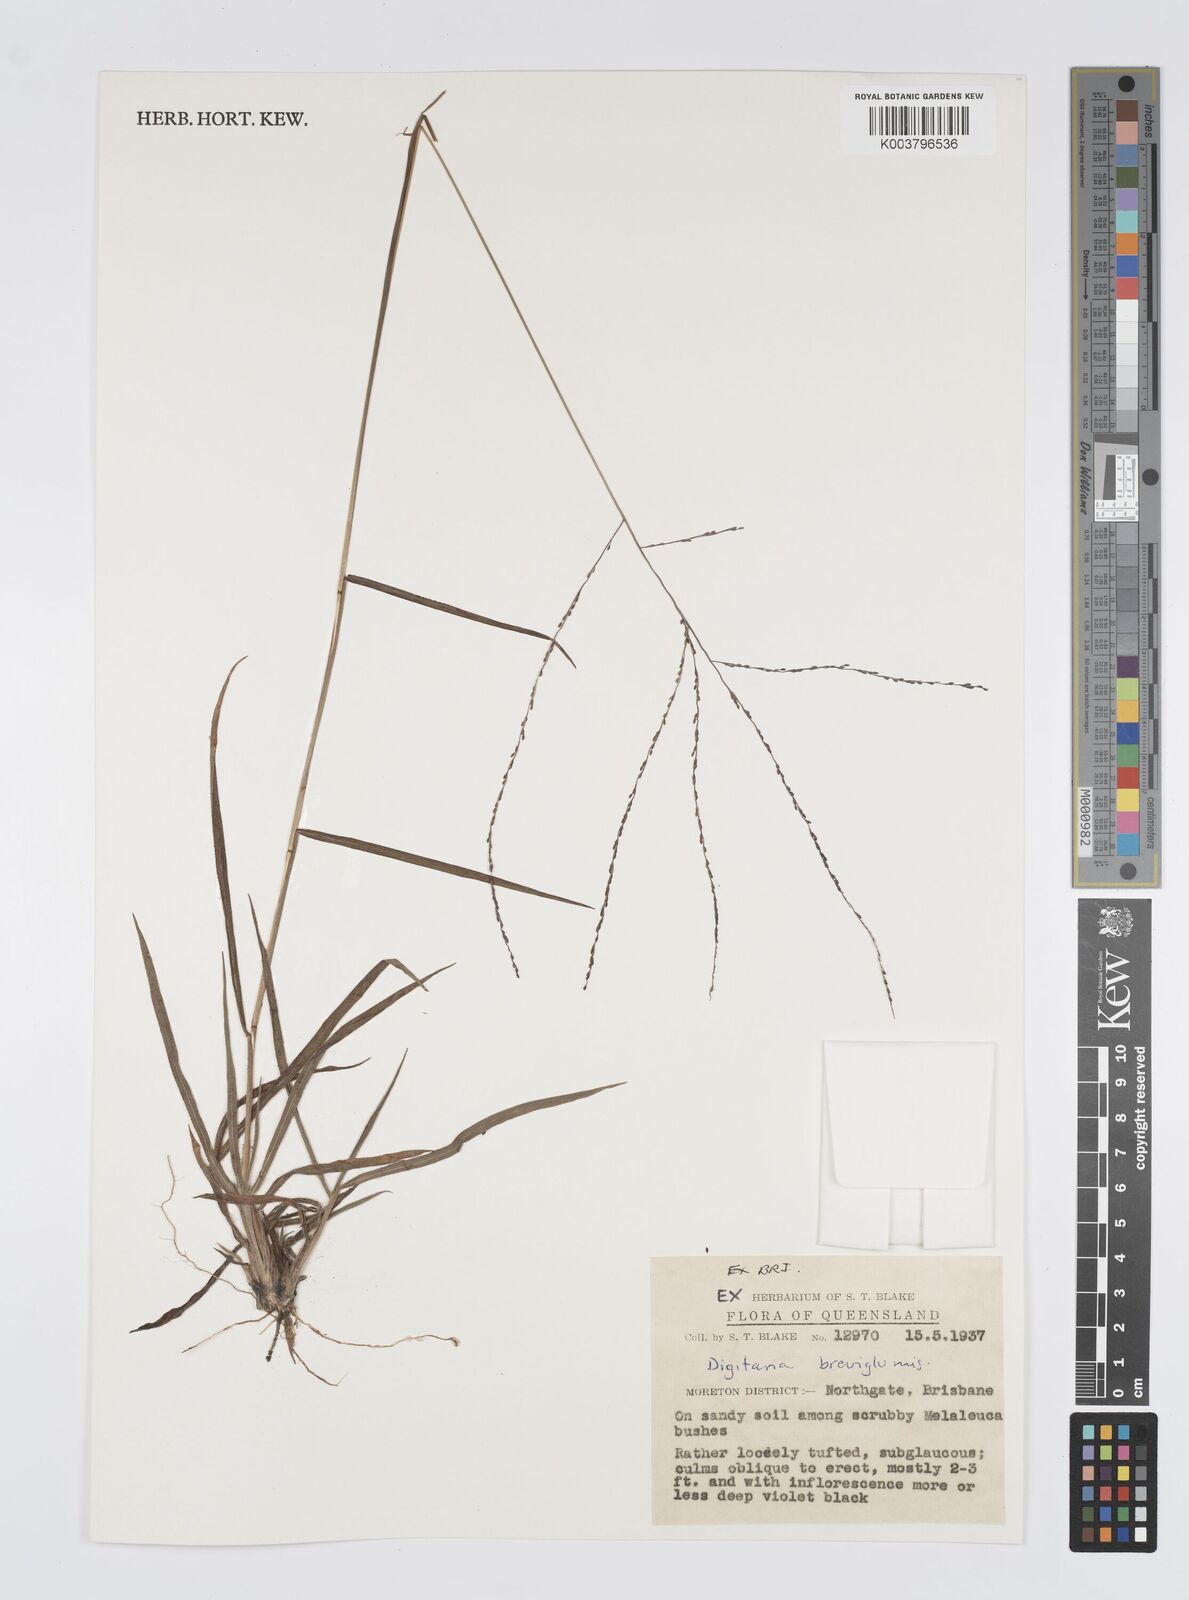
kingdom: Plantae
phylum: Tracheophyta
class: Liliopsida
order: Poales
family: Poaceae
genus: Digitaria
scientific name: Digitaria breviglumis
